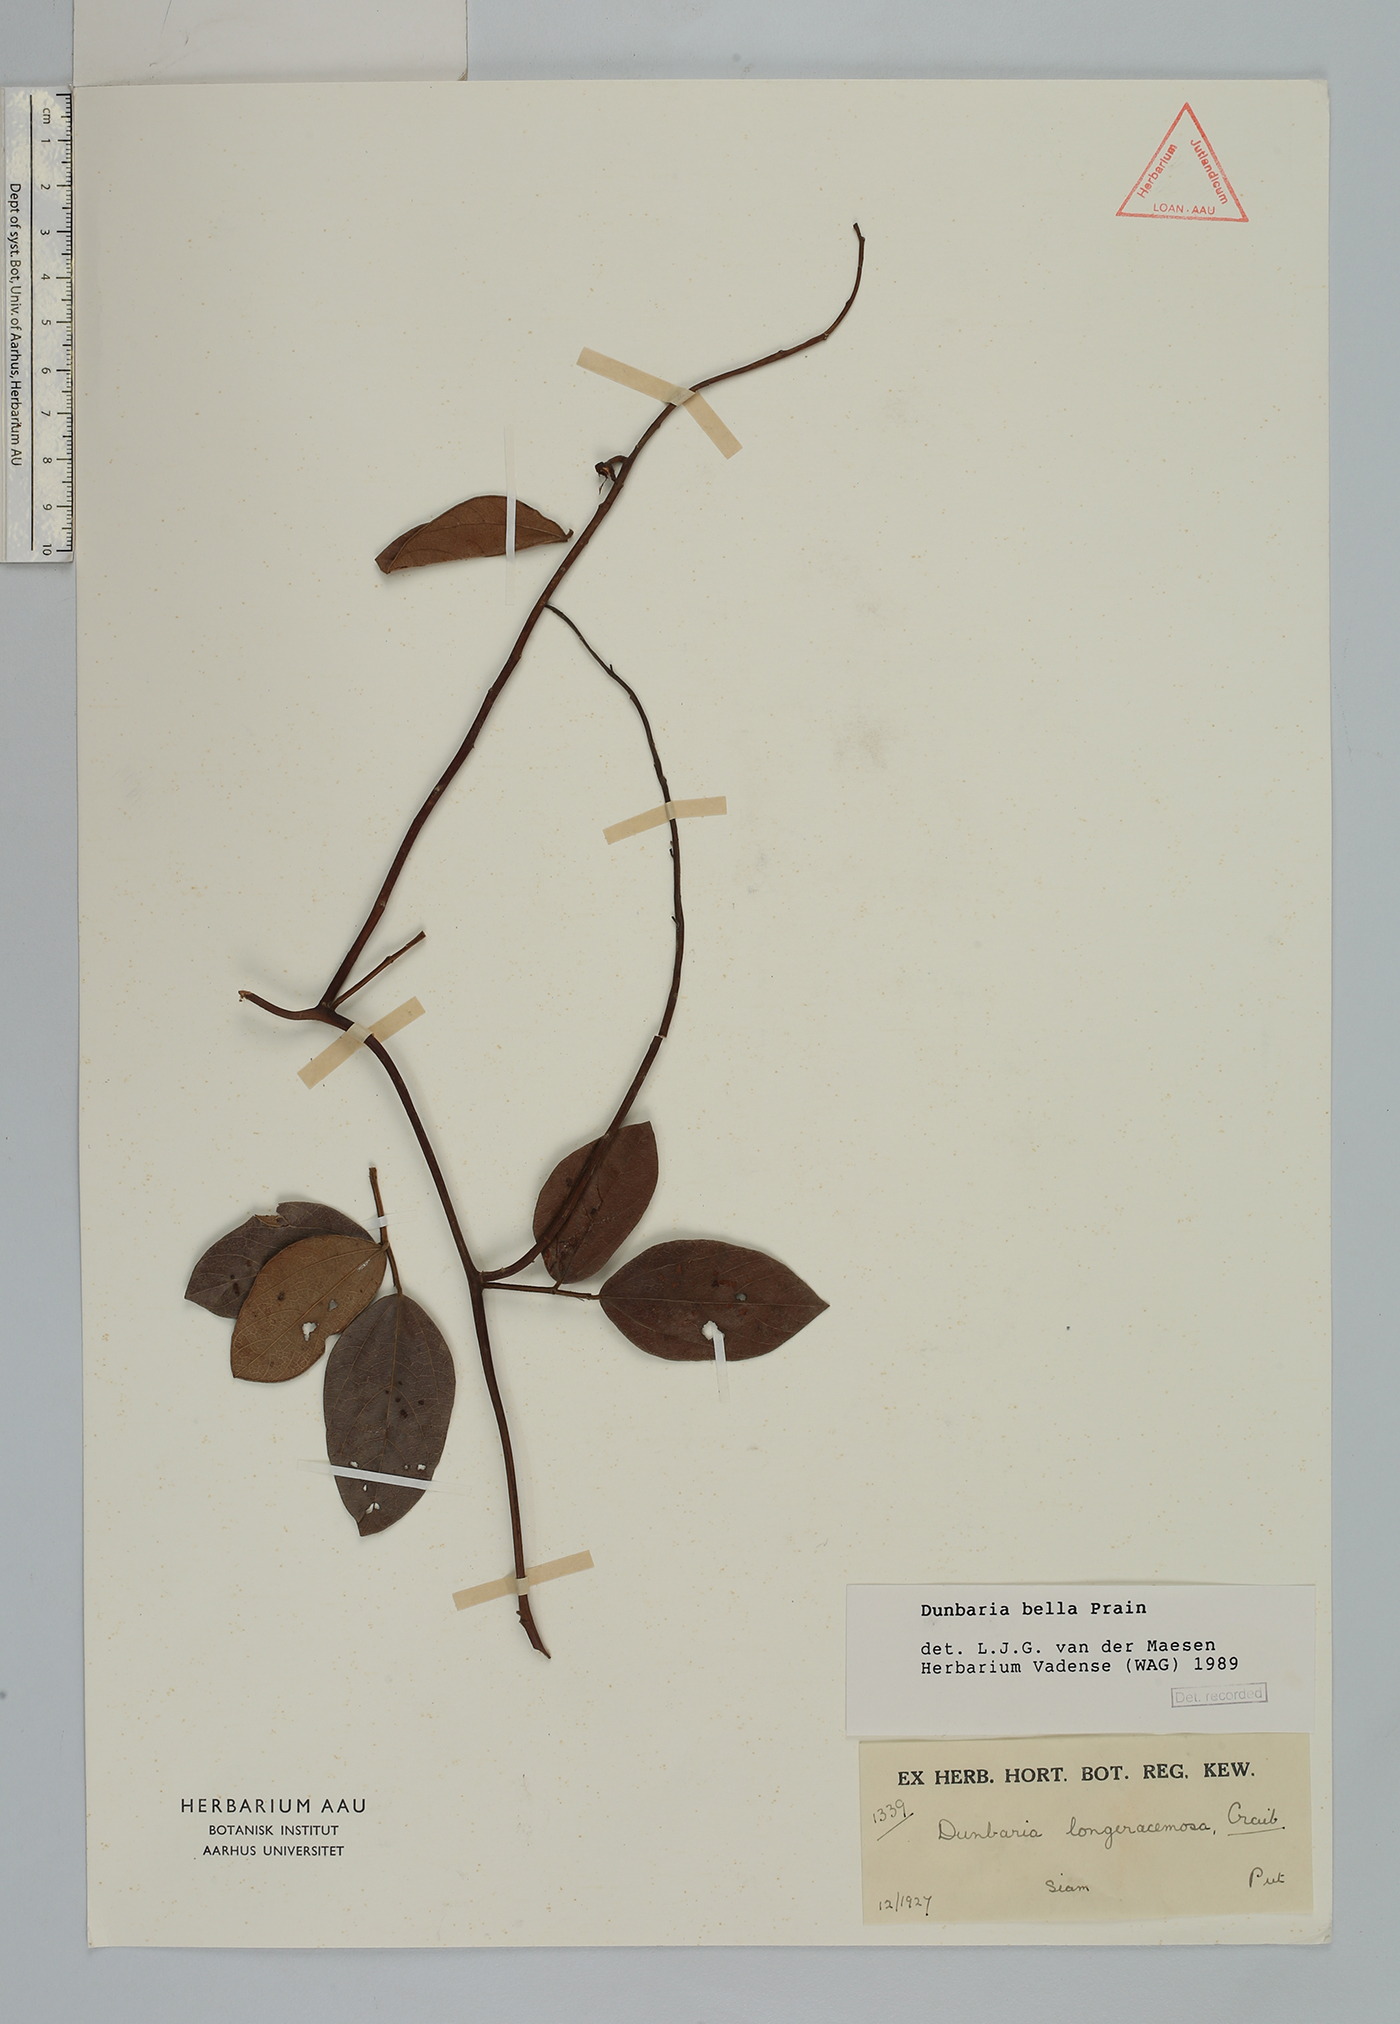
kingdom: Plantae
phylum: Tracheophyta
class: Magnoliopsida
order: Fabales
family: Fabaceae
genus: Dunbaria
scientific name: Dunbaria bella
